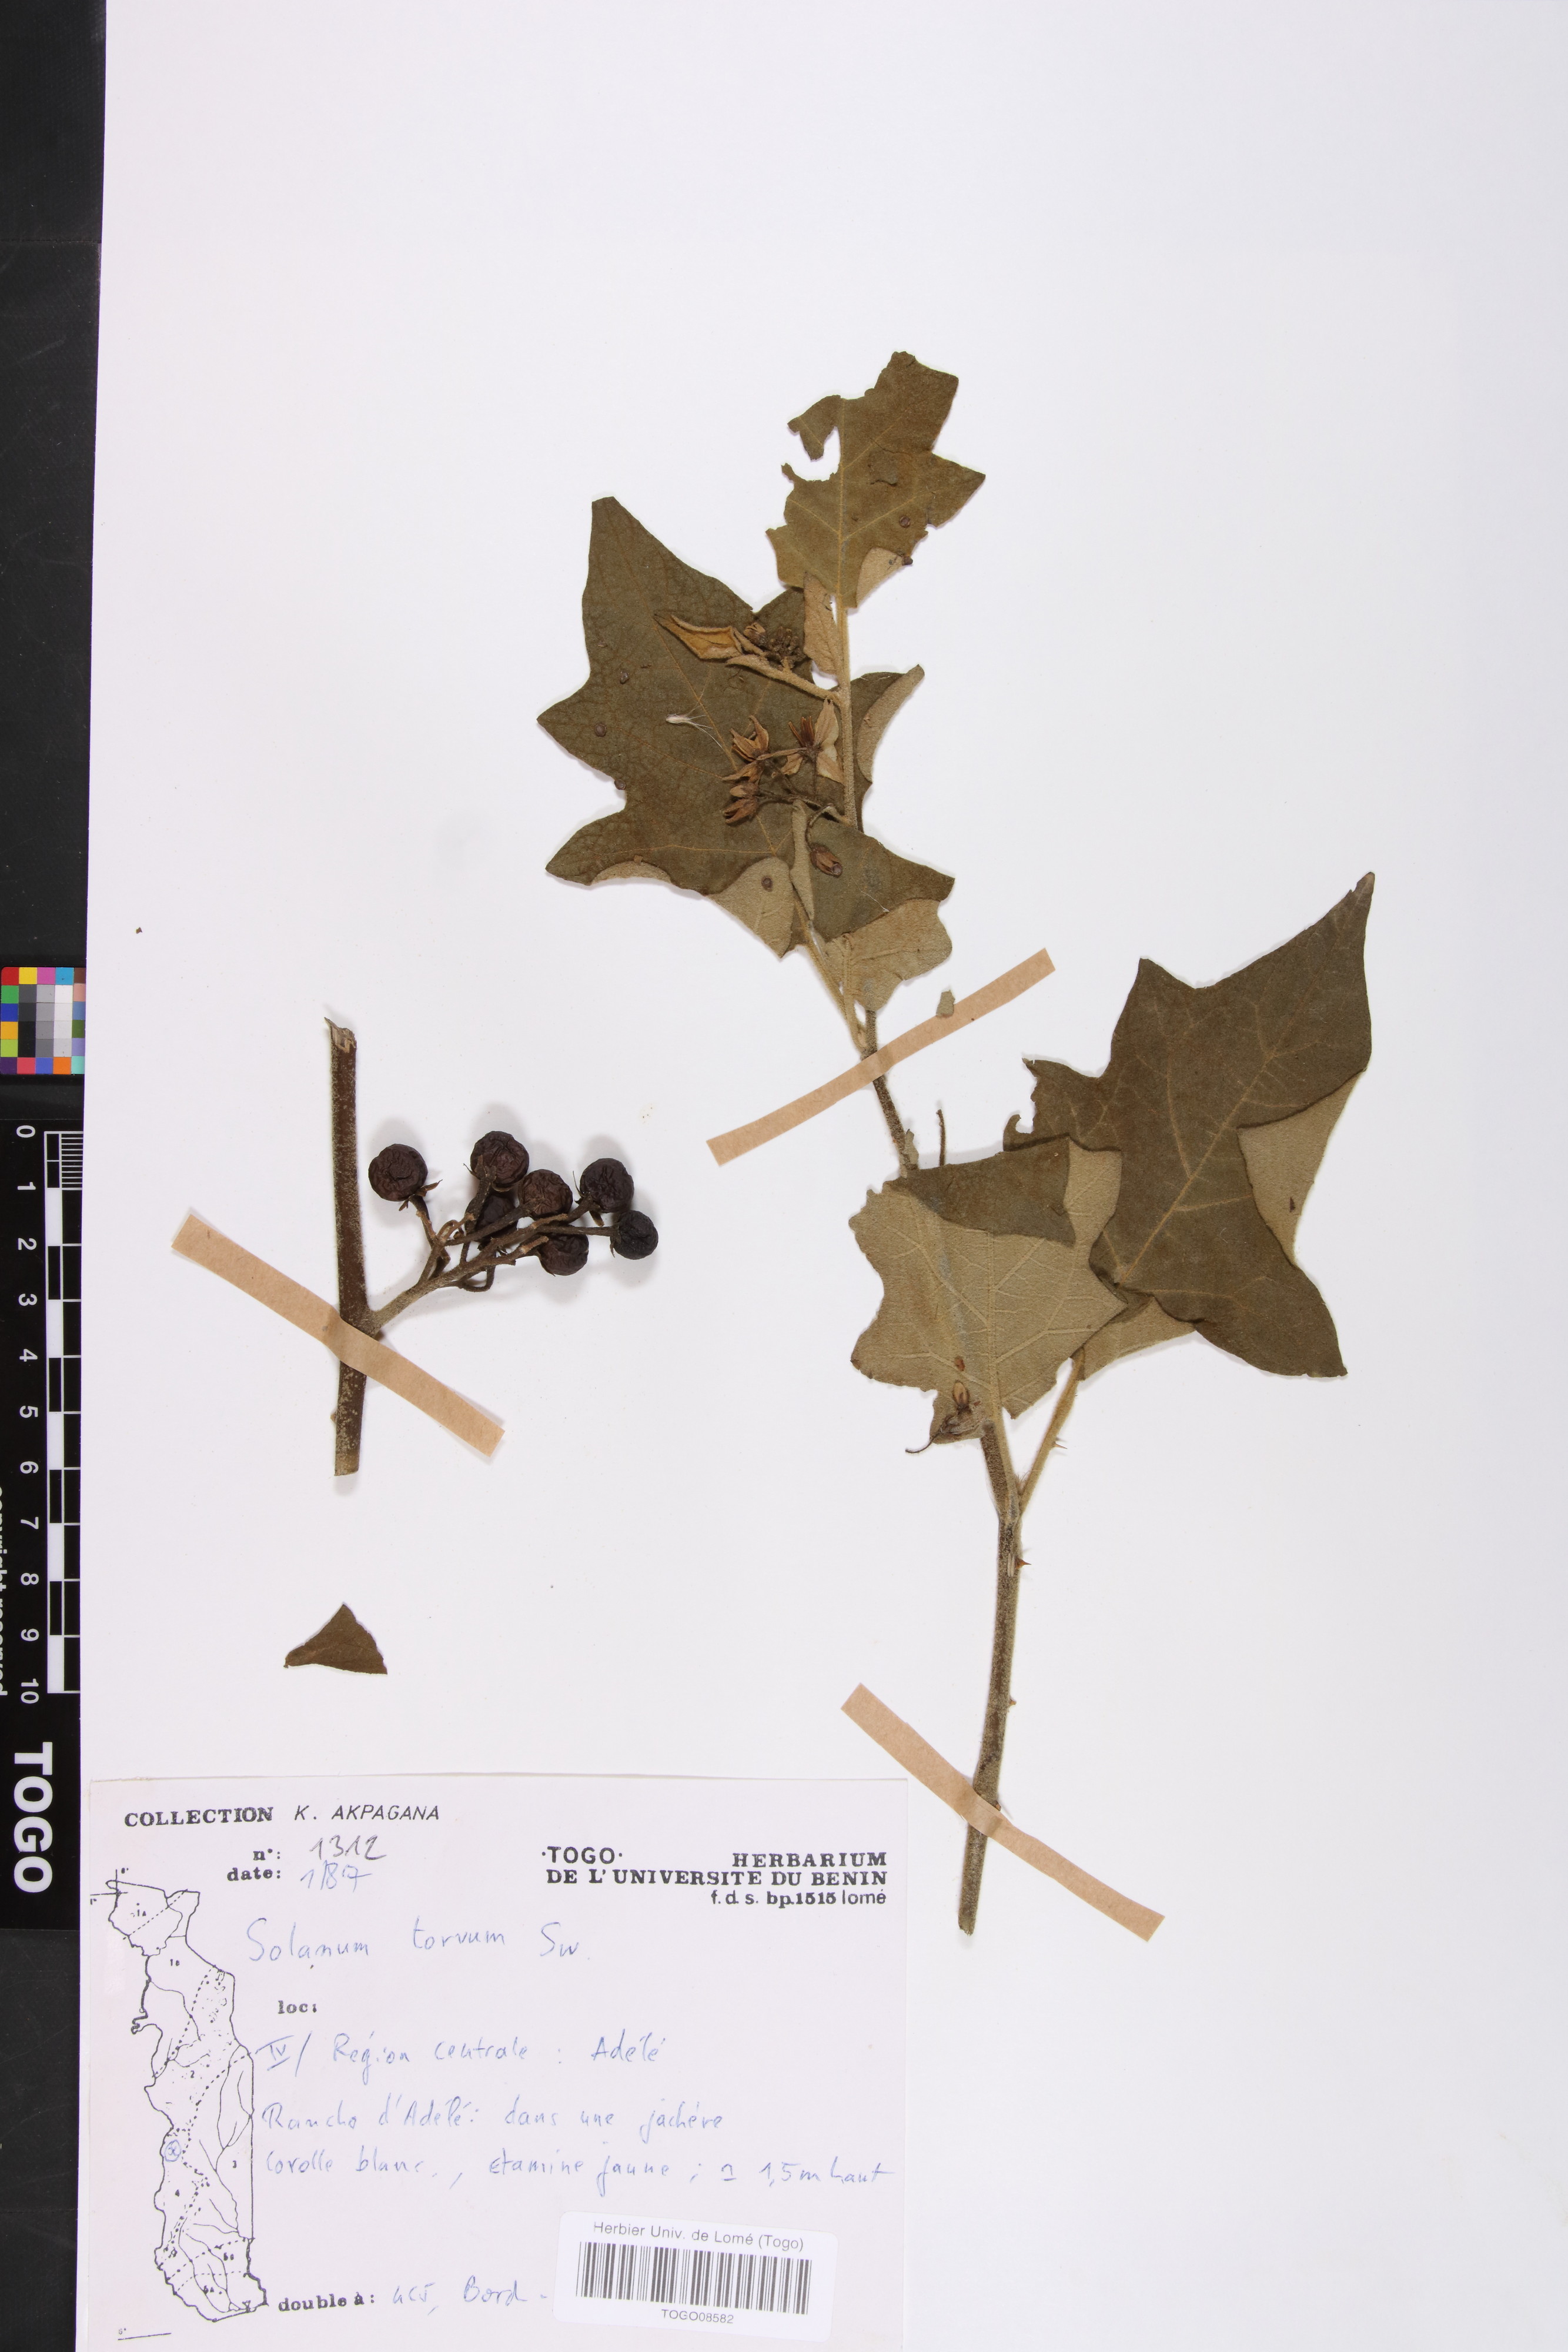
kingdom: Plantae
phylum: Tracheophyta
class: Magnoliopsida
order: Solanales
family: Solanaceae
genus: Solanum
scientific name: Solanum torvum
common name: Turkey berry
